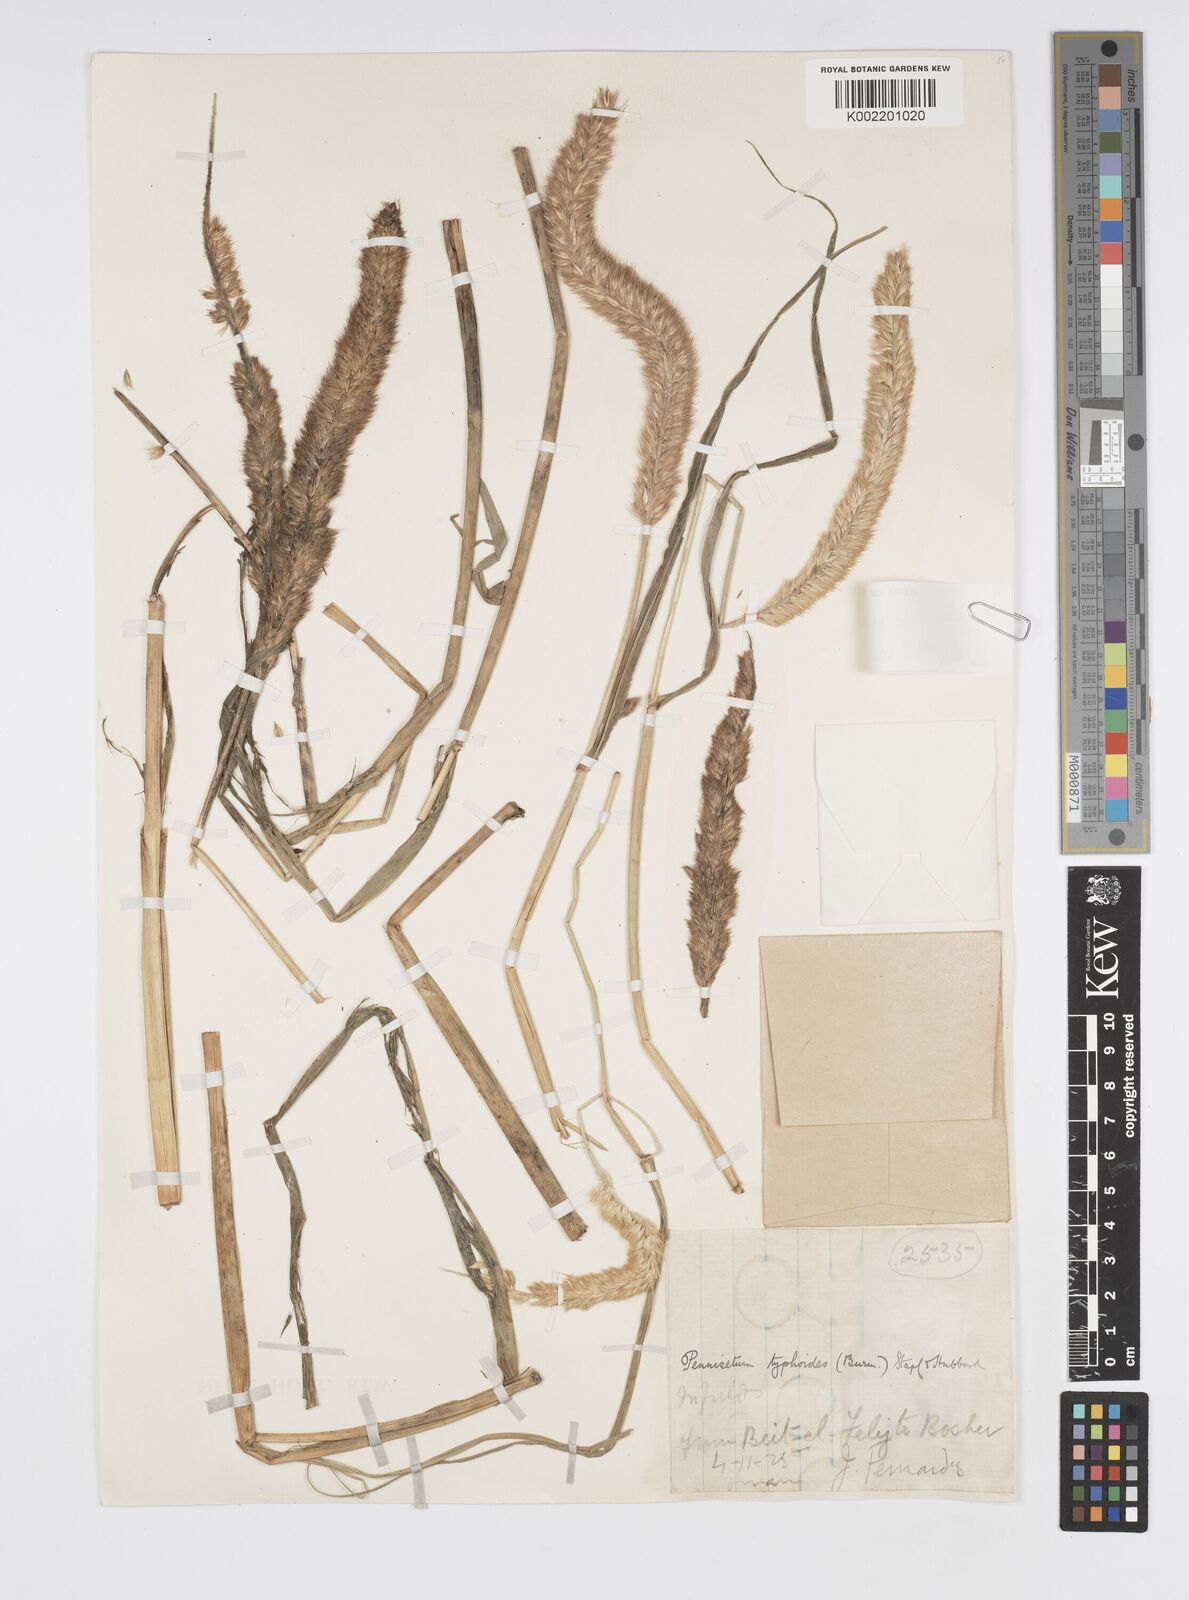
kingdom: Plantae
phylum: Tracheophyta
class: Liliopsida
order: Poales
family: Poaceae
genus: Cenchrus
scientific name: Cenchrus sieberianus
